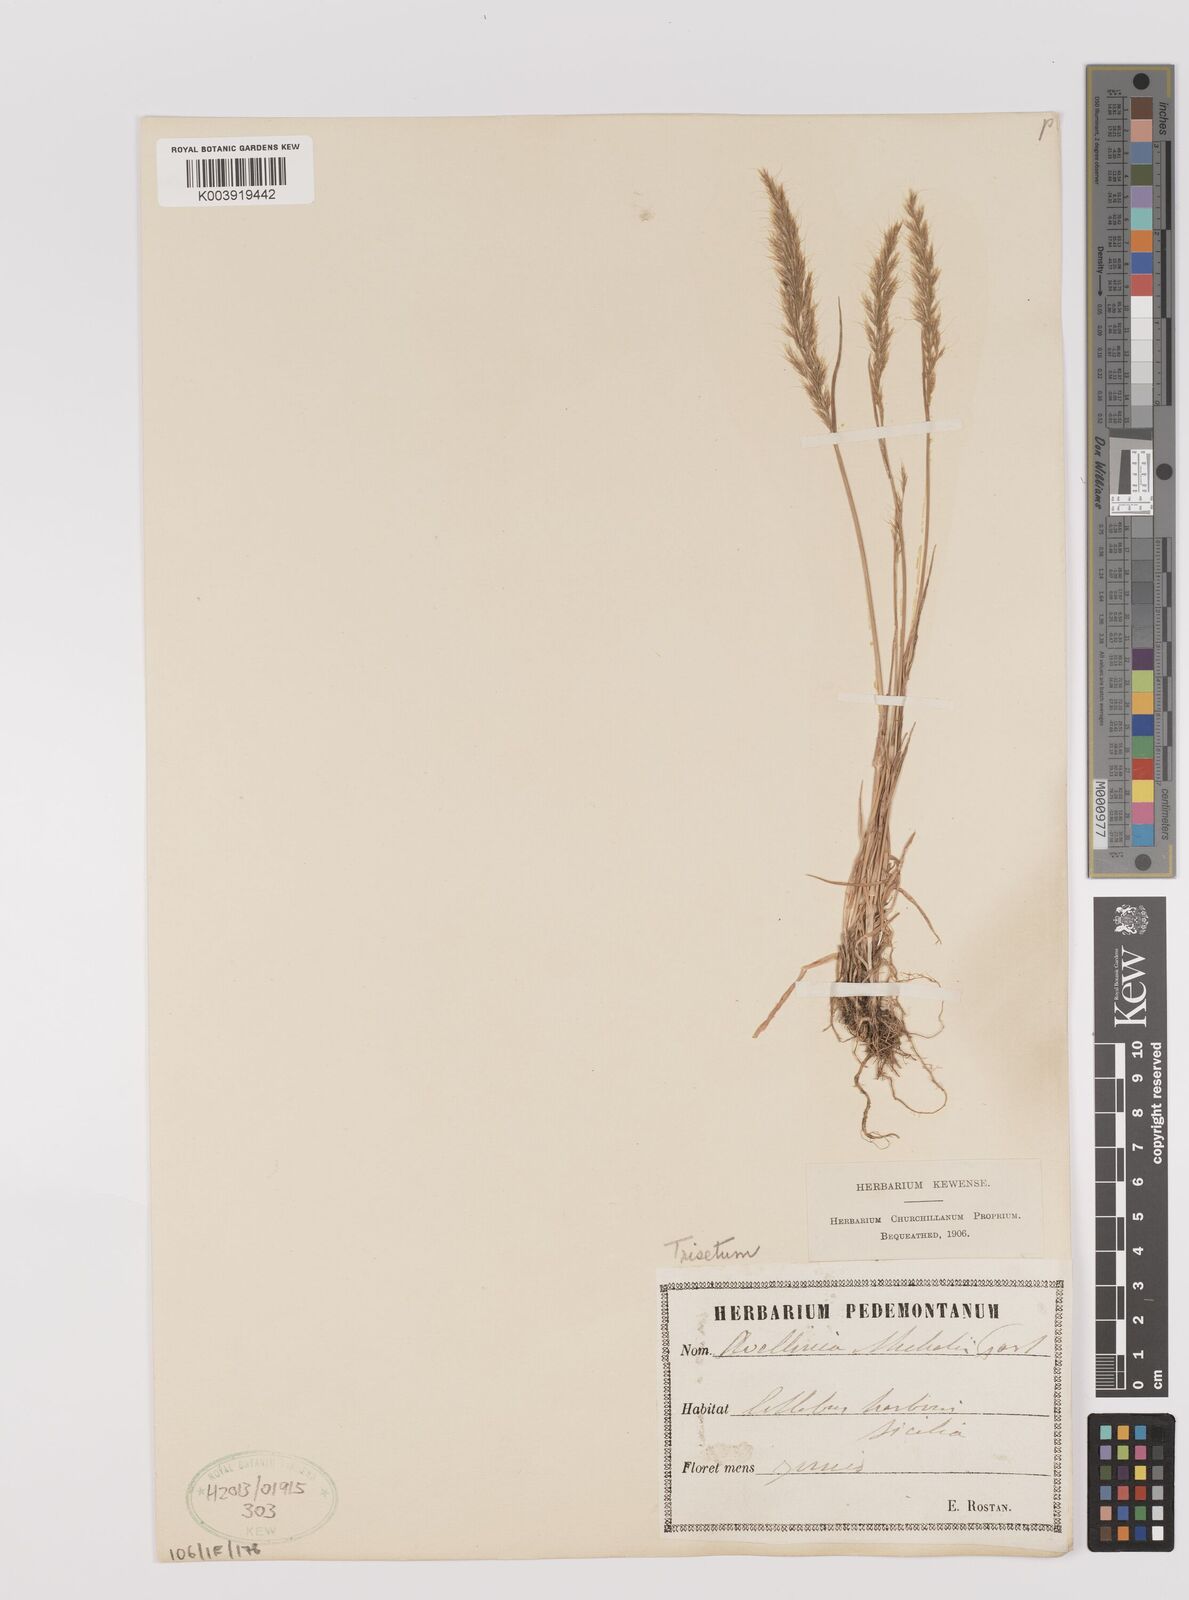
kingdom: Plantae
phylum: Tracheophyta
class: Liliopsida
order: Poales
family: Poaceae
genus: Trisetum
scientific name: Trisetum argenteum
